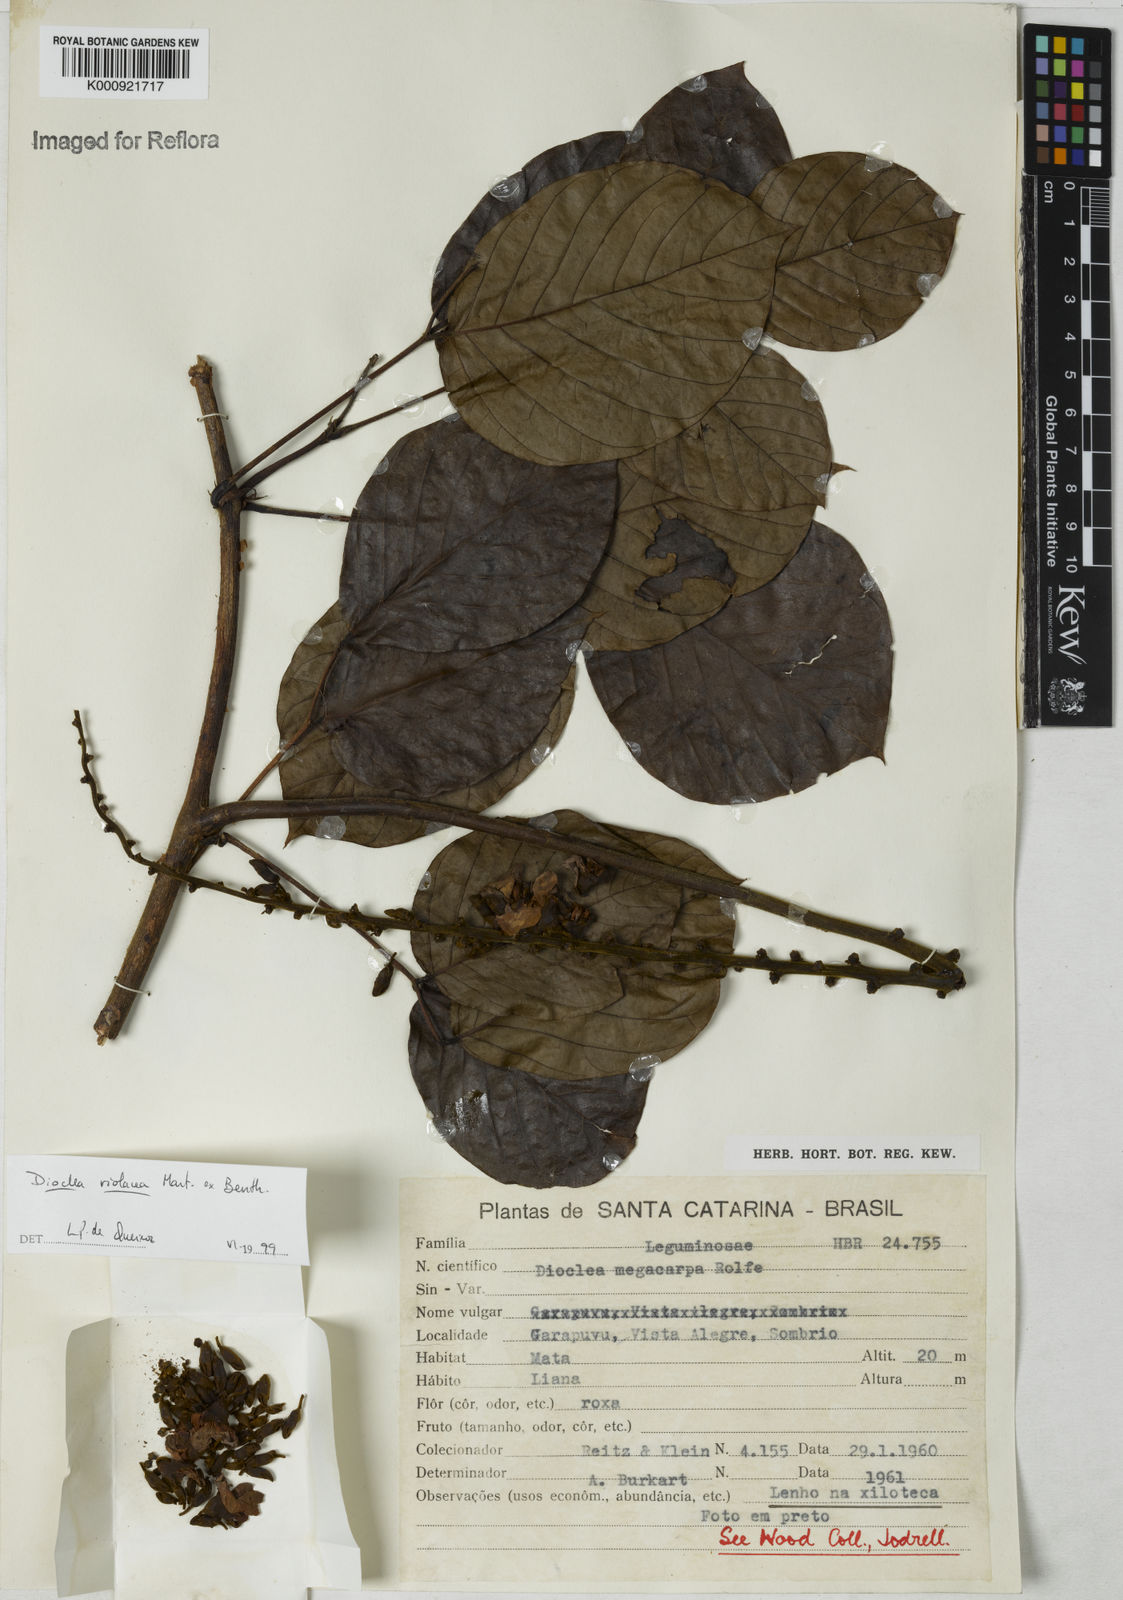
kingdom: Plantae
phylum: Tracheophyta
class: Magnoliopsida
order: Fabales
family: Fabaceae
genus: Macropsychanthus
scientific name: Macropsychanthus violaceus
